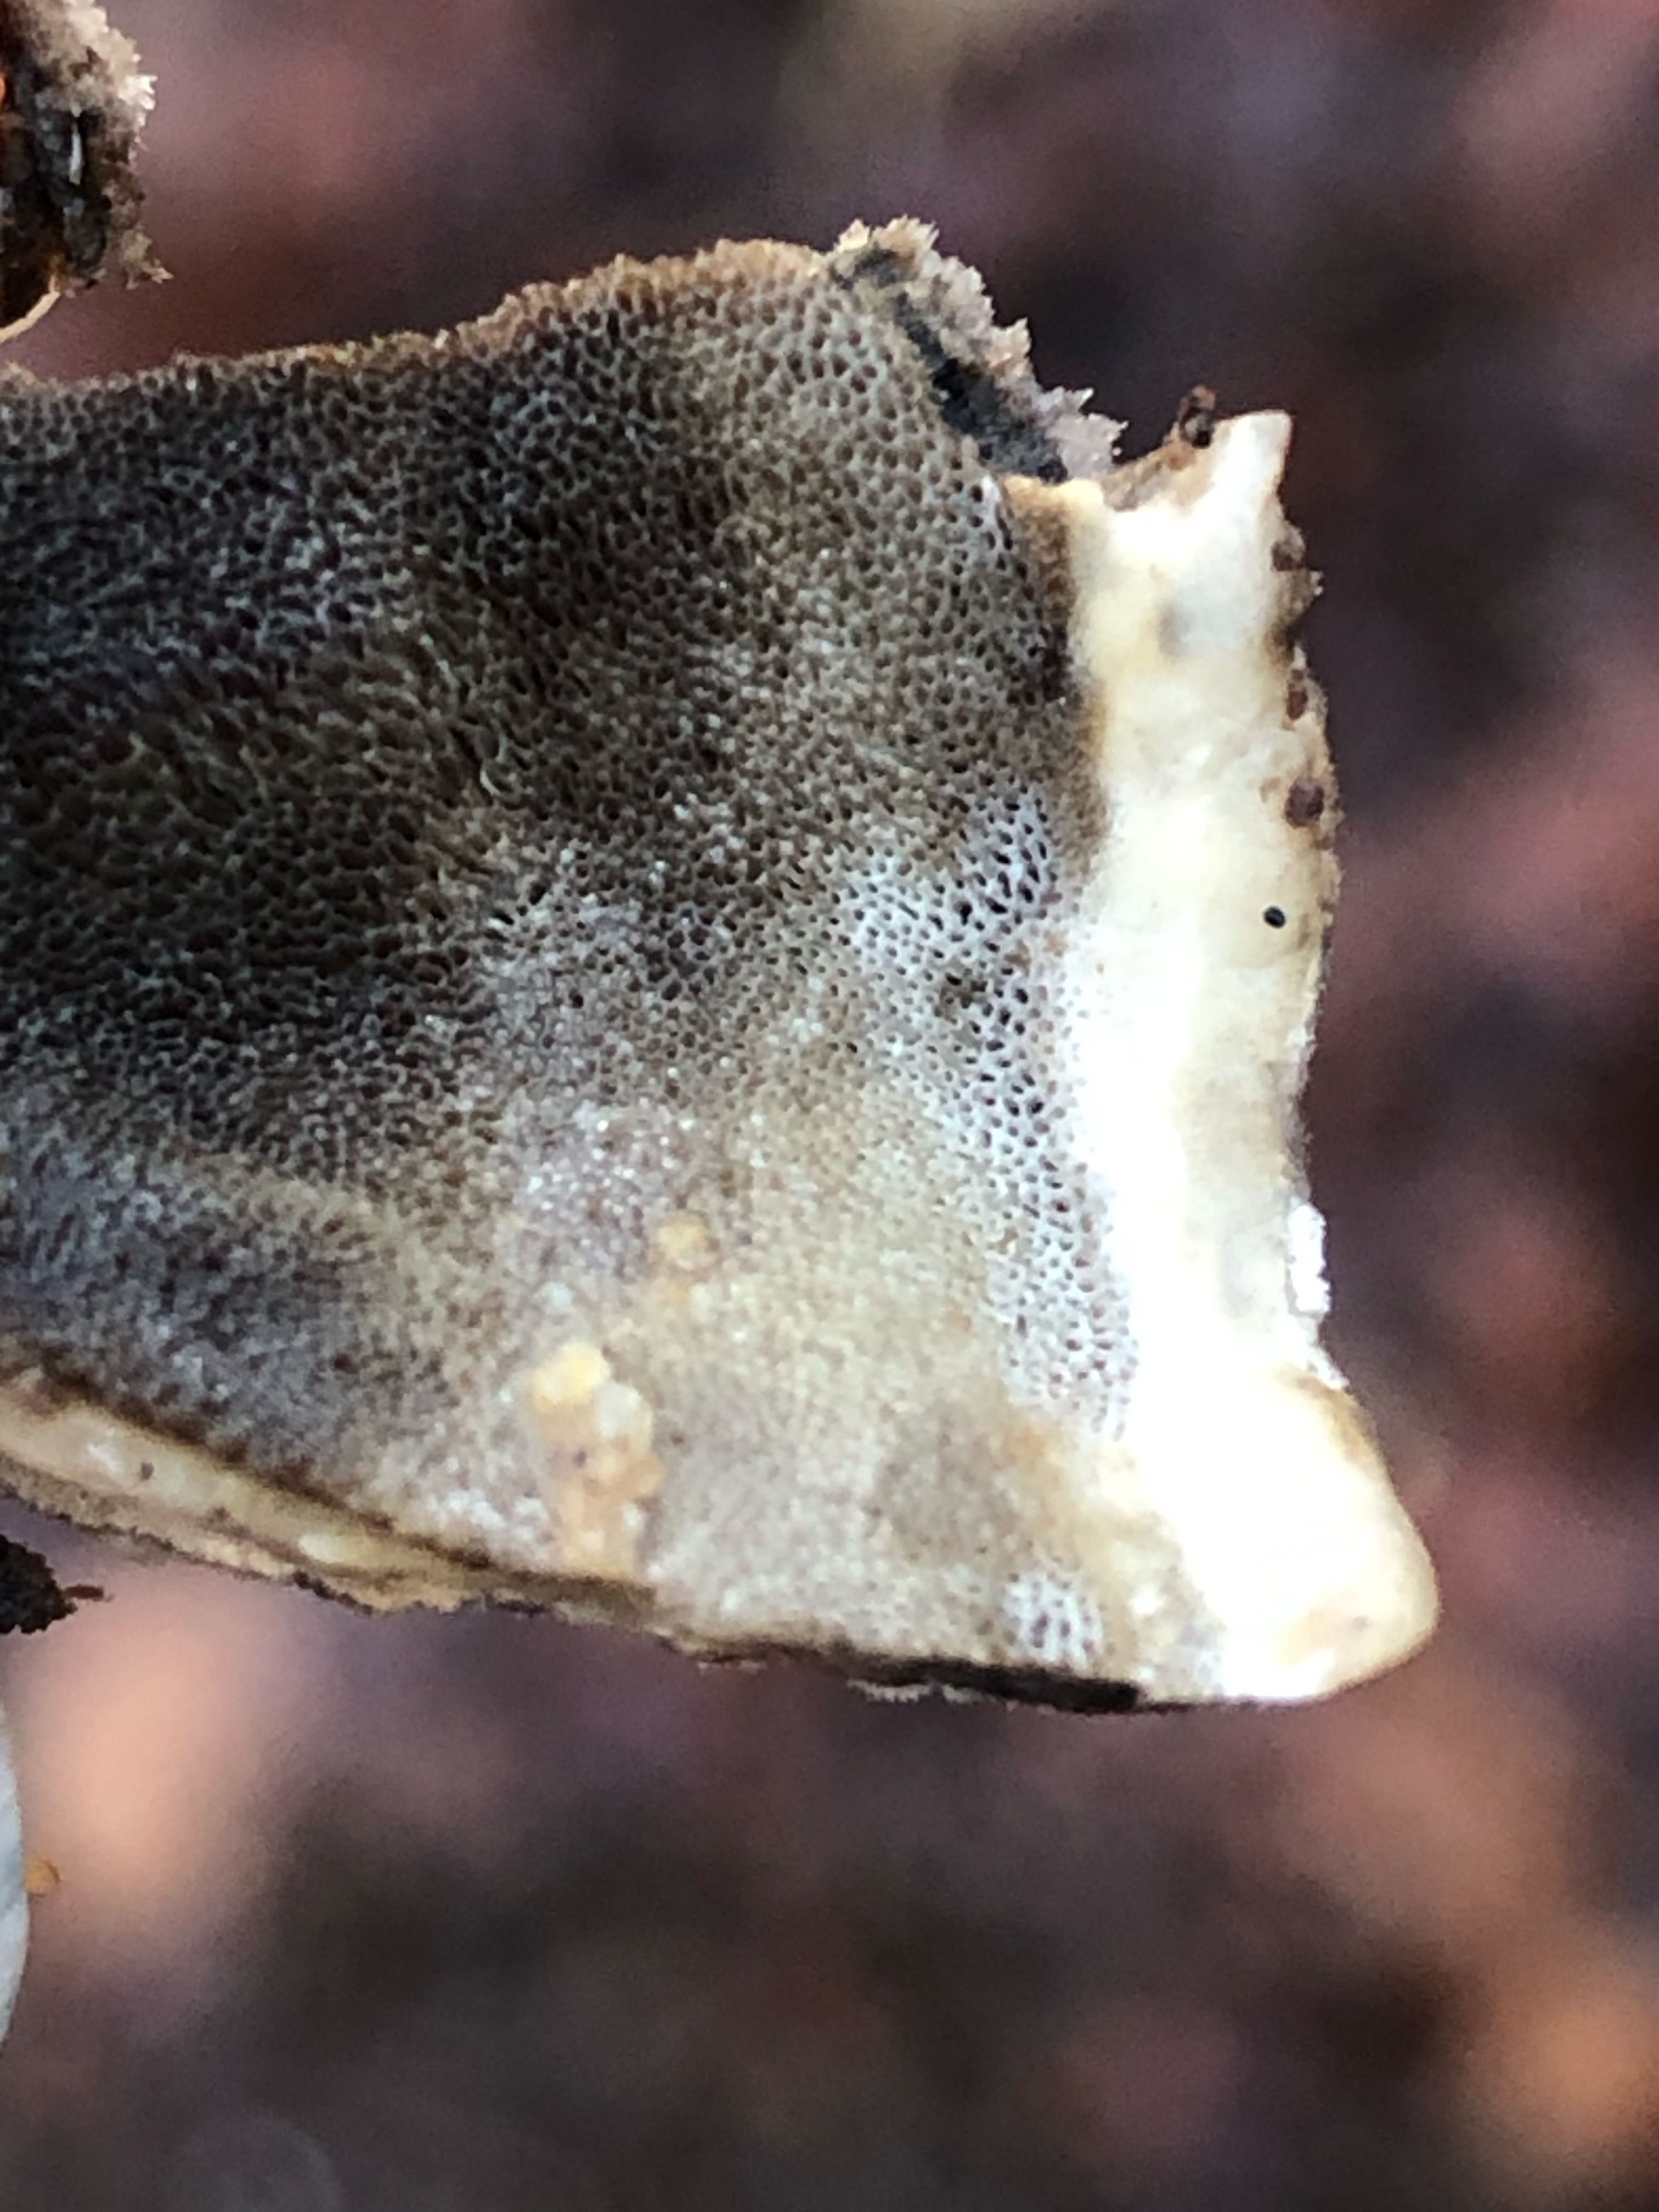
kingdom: Fungi
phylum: Basidiomycota
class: Agaricomycetes
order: Polyporales
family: Phanerochaetaceae
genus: Bjerkandera
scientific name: Bjerkandera adusta
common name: sveden sodporesvamp
